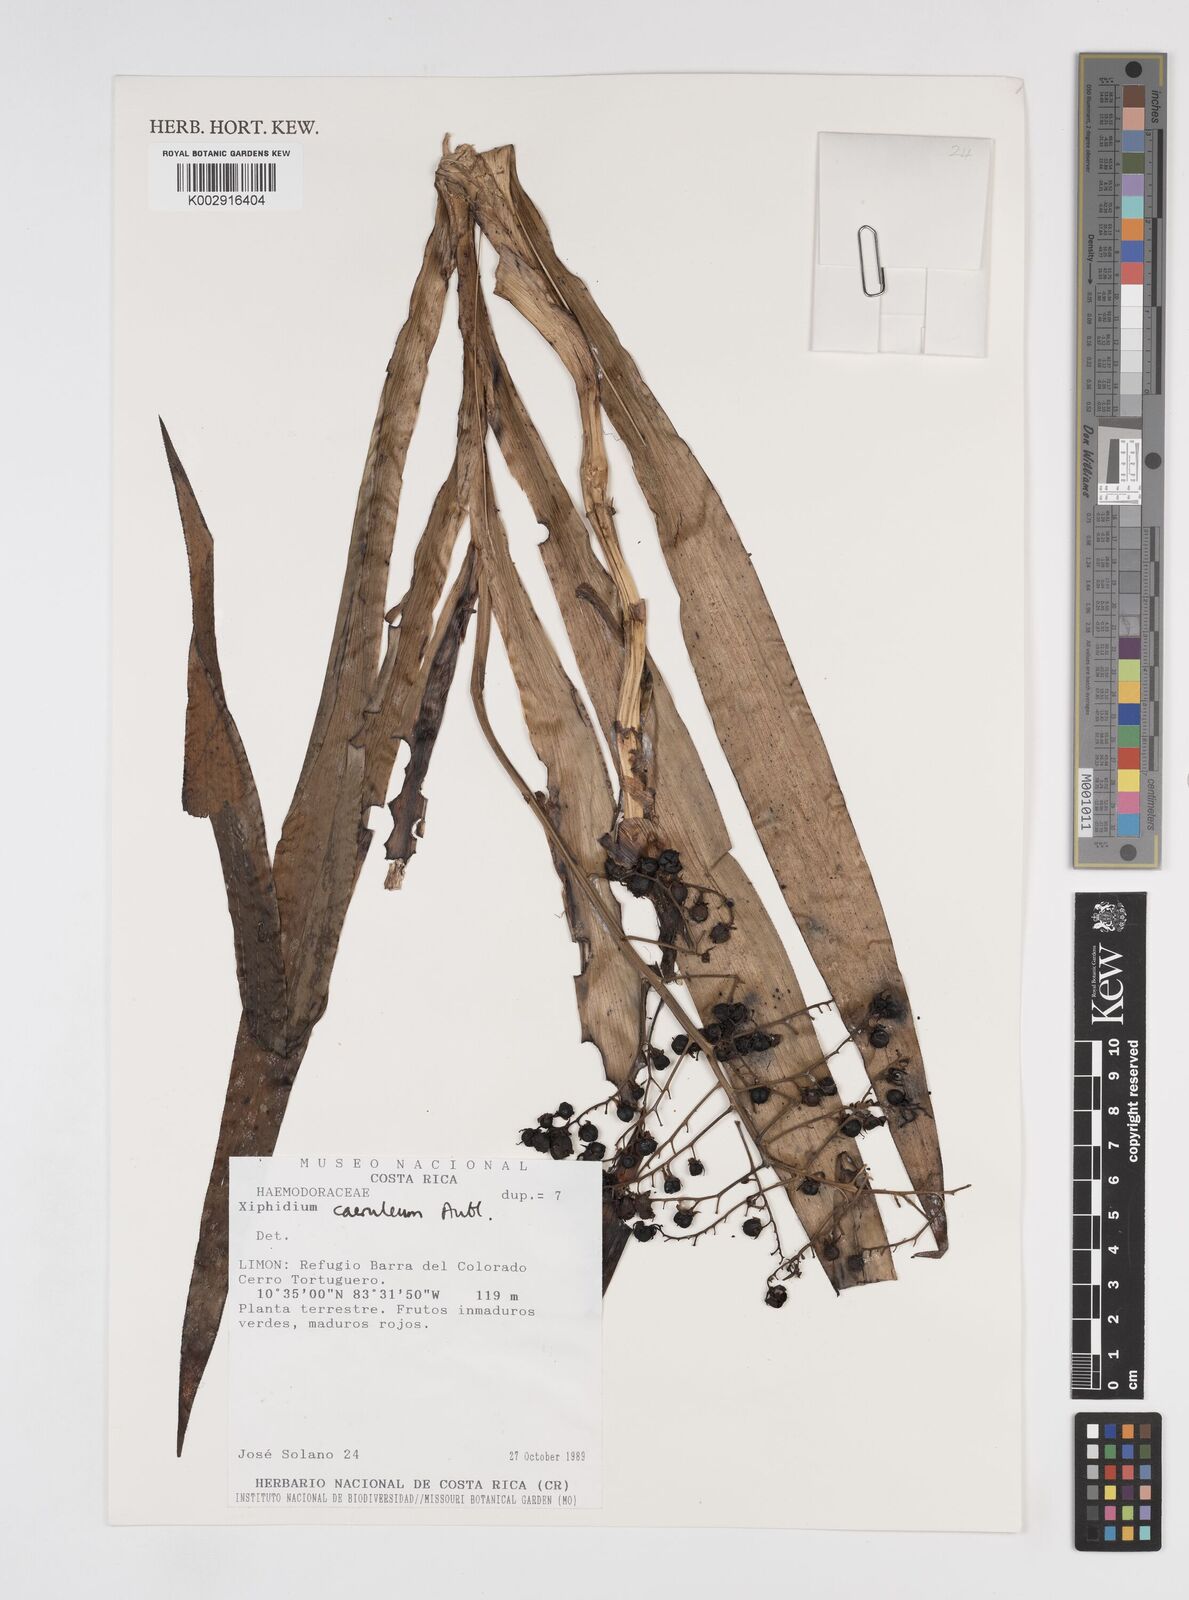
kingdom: Plantae
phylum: Tracheophyta
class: Liliopsida
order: Commelinales
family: Haemodoraceae
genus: Xiphidium
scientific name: Xiphidium caeruleum
